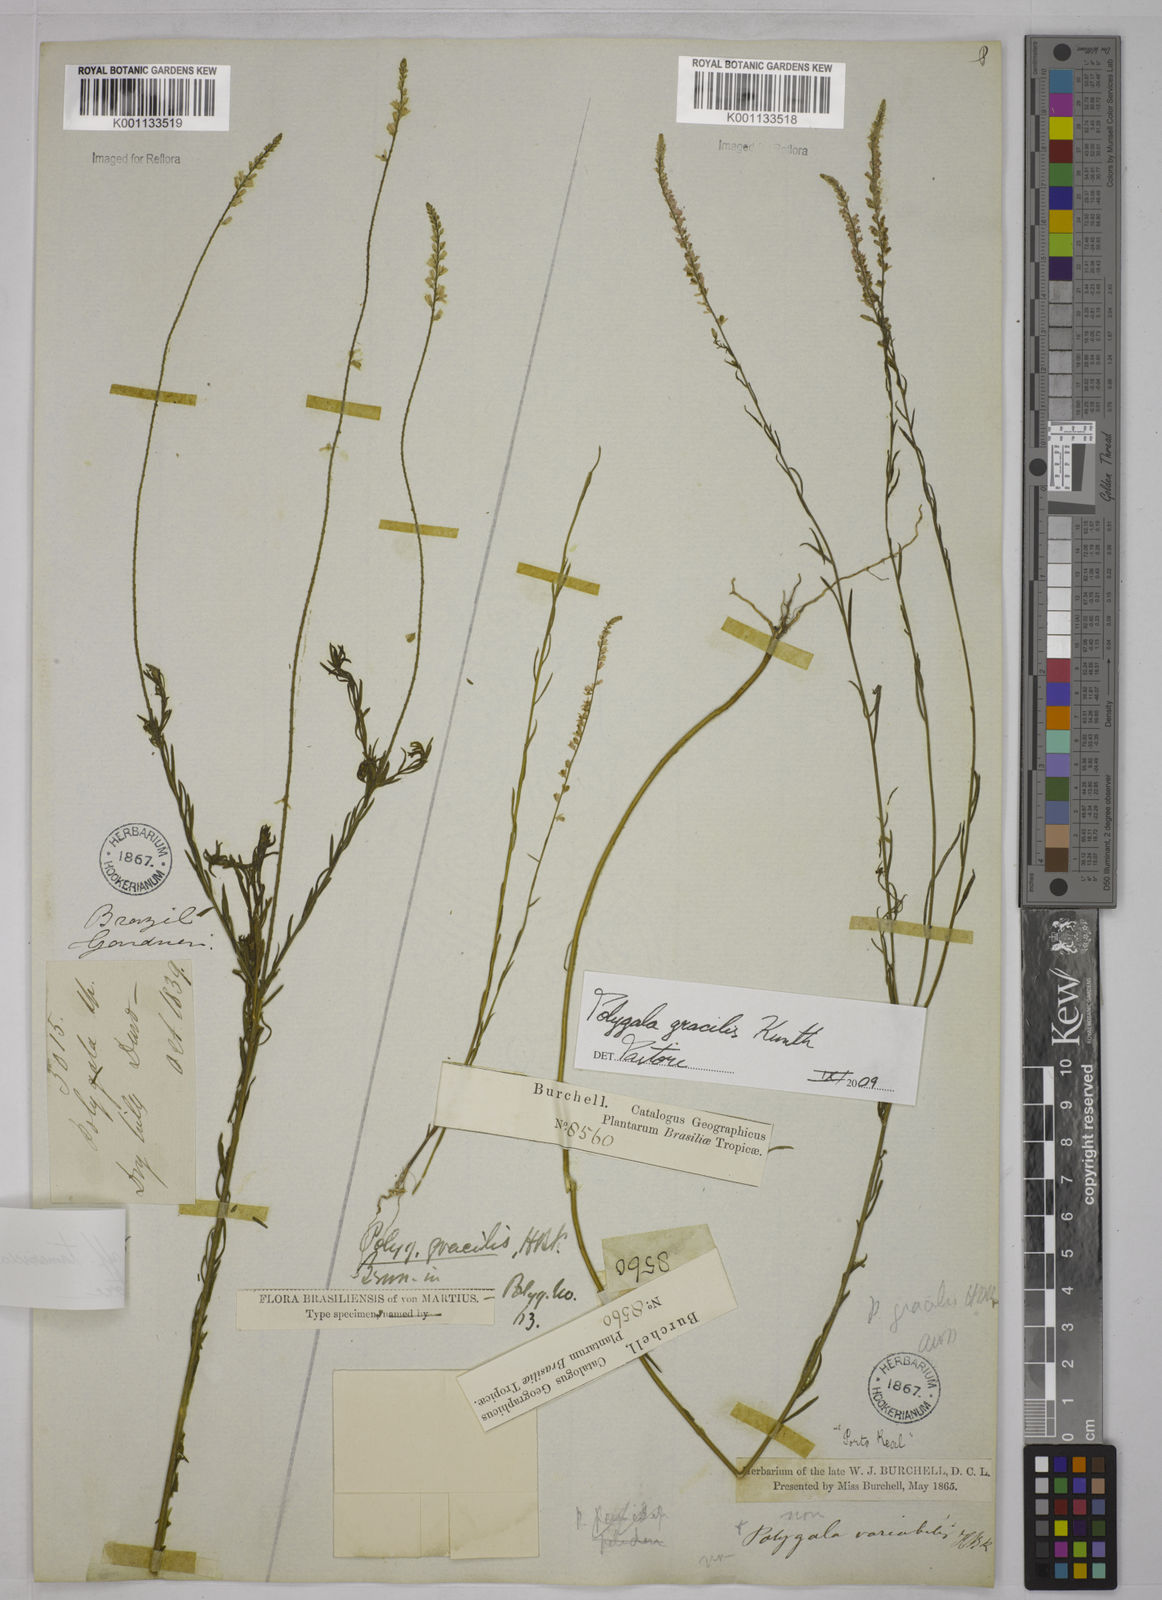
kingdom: Plantae
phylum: Tracheophyta
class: Magnoliopsida
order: Fabales
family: Polygalaceae
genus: Polygala
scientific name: Polygala gracilis
